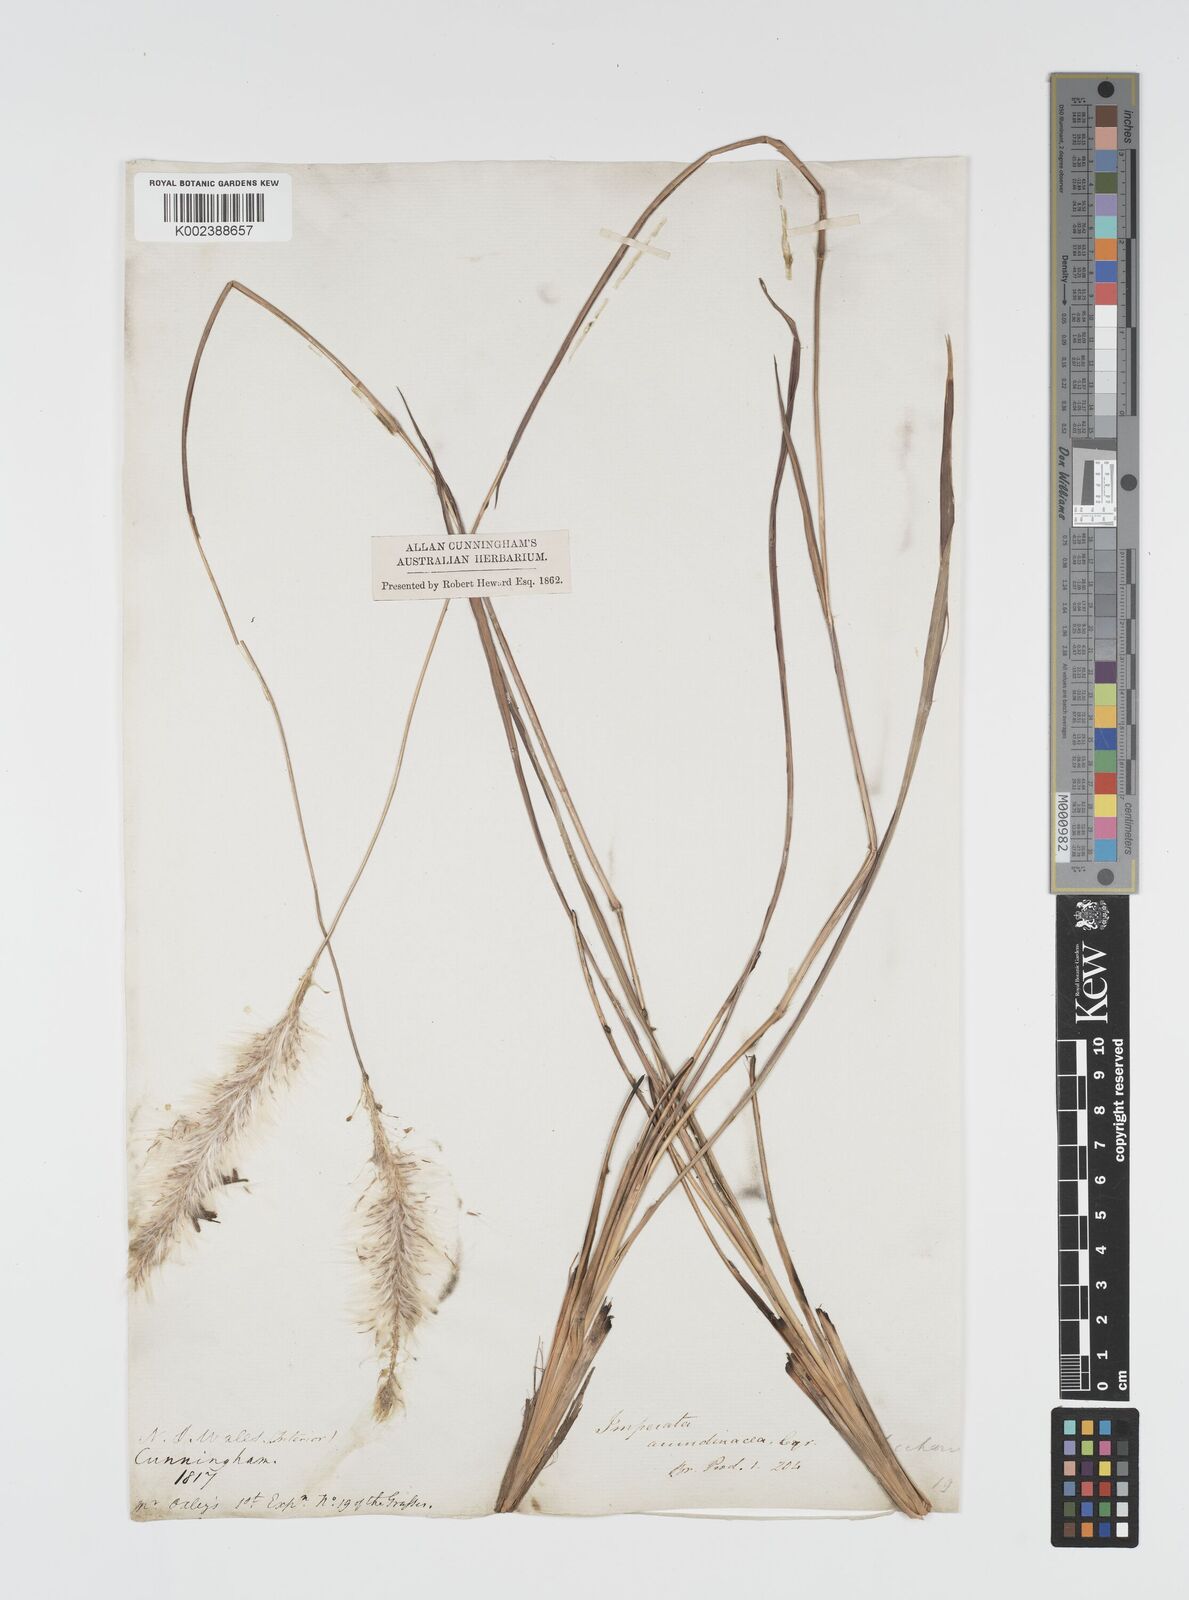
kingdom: Plantae
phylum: Tracheophyta
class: Liliopsida
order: Poales
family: Poaceae
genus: Imperata
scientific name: Imperata cylindrica
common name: Cogongrass
